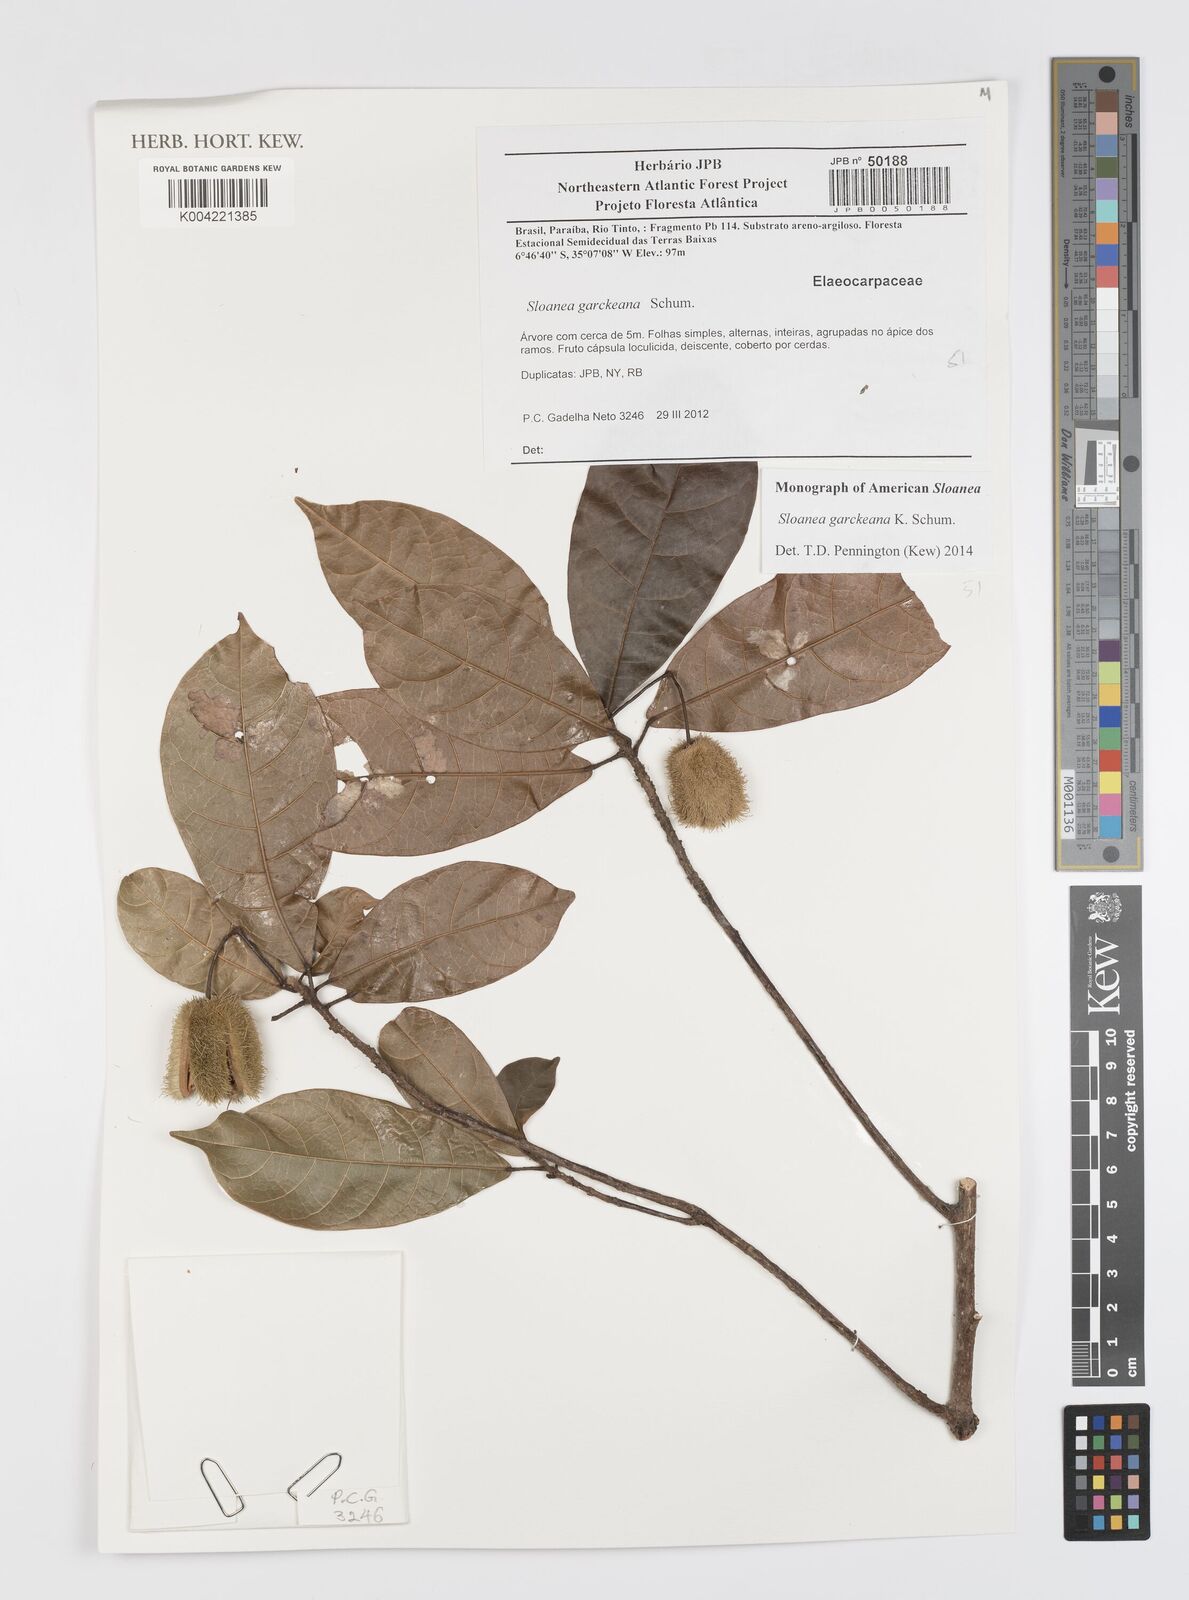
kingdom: Plantae
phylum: Tracheophyta
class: Magnoliopsida
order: Oxalidales
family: Elaeocarpaceae
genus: Sloanea
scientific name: Sloanea garckeana
